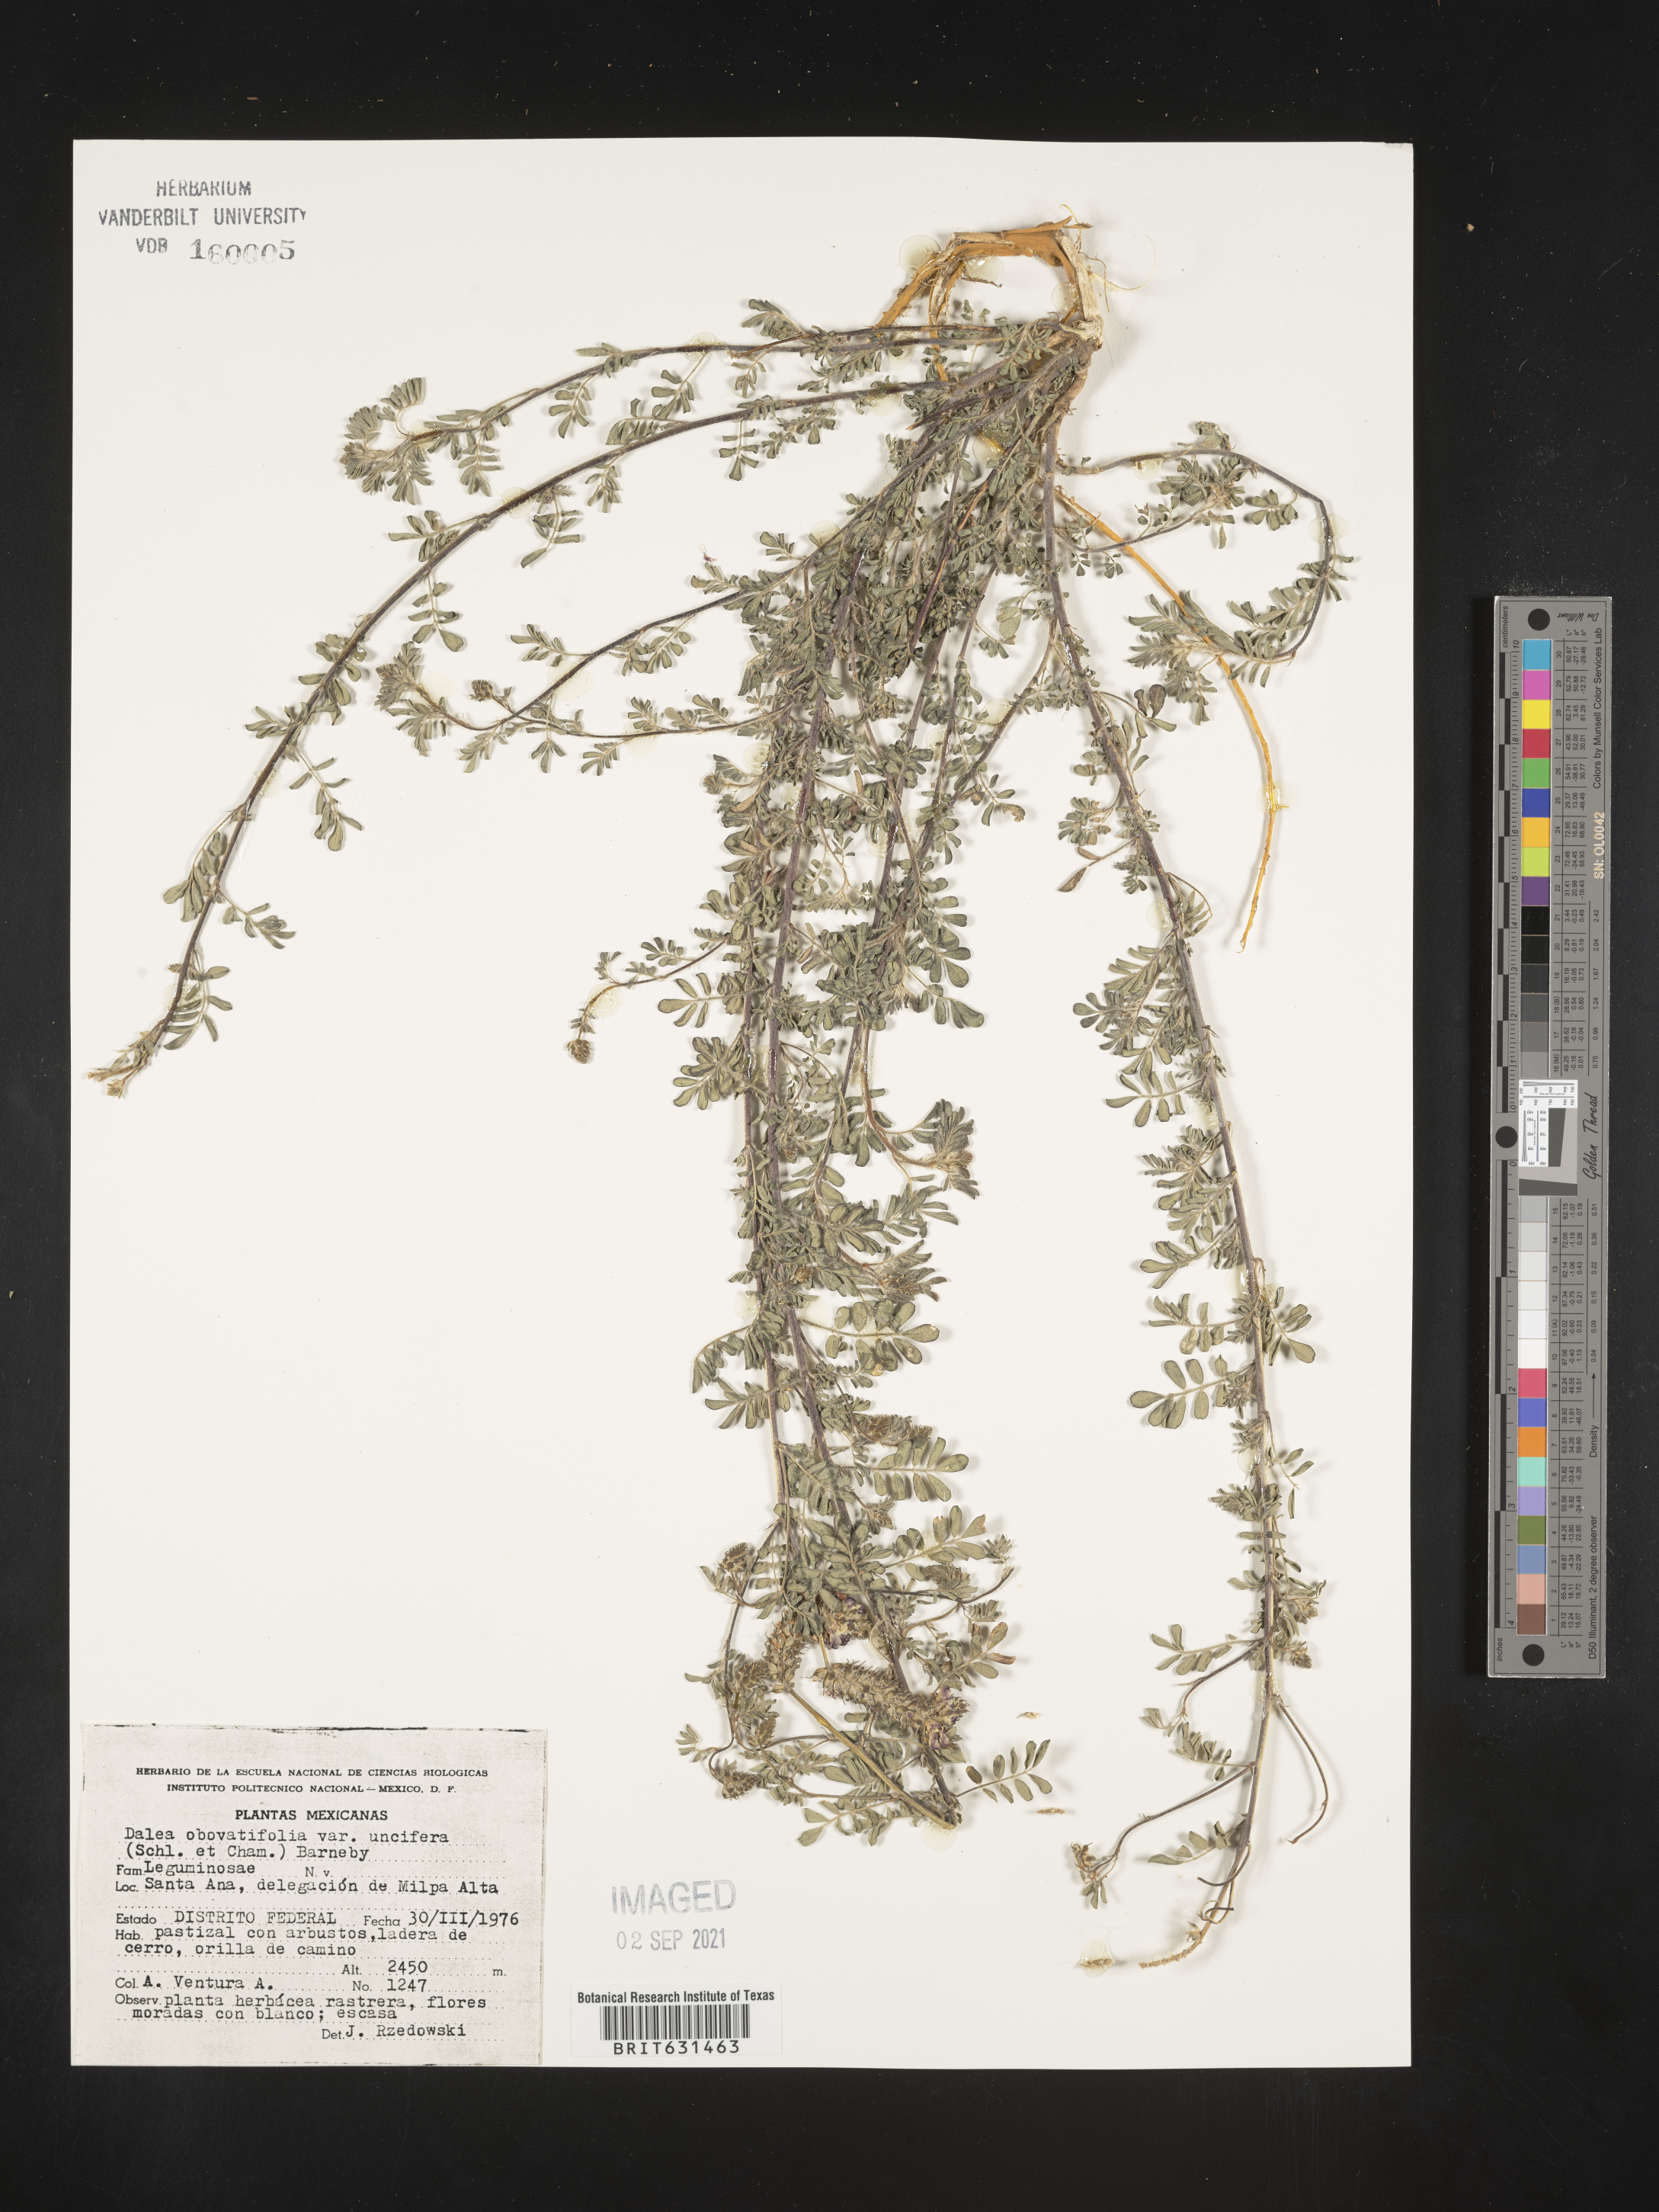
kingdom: Plantae
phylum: Tracheophyta
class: Magnoliopsida
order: Fabales
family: Fabaceae
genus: Dalea
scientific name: Dalea obovatifolia
